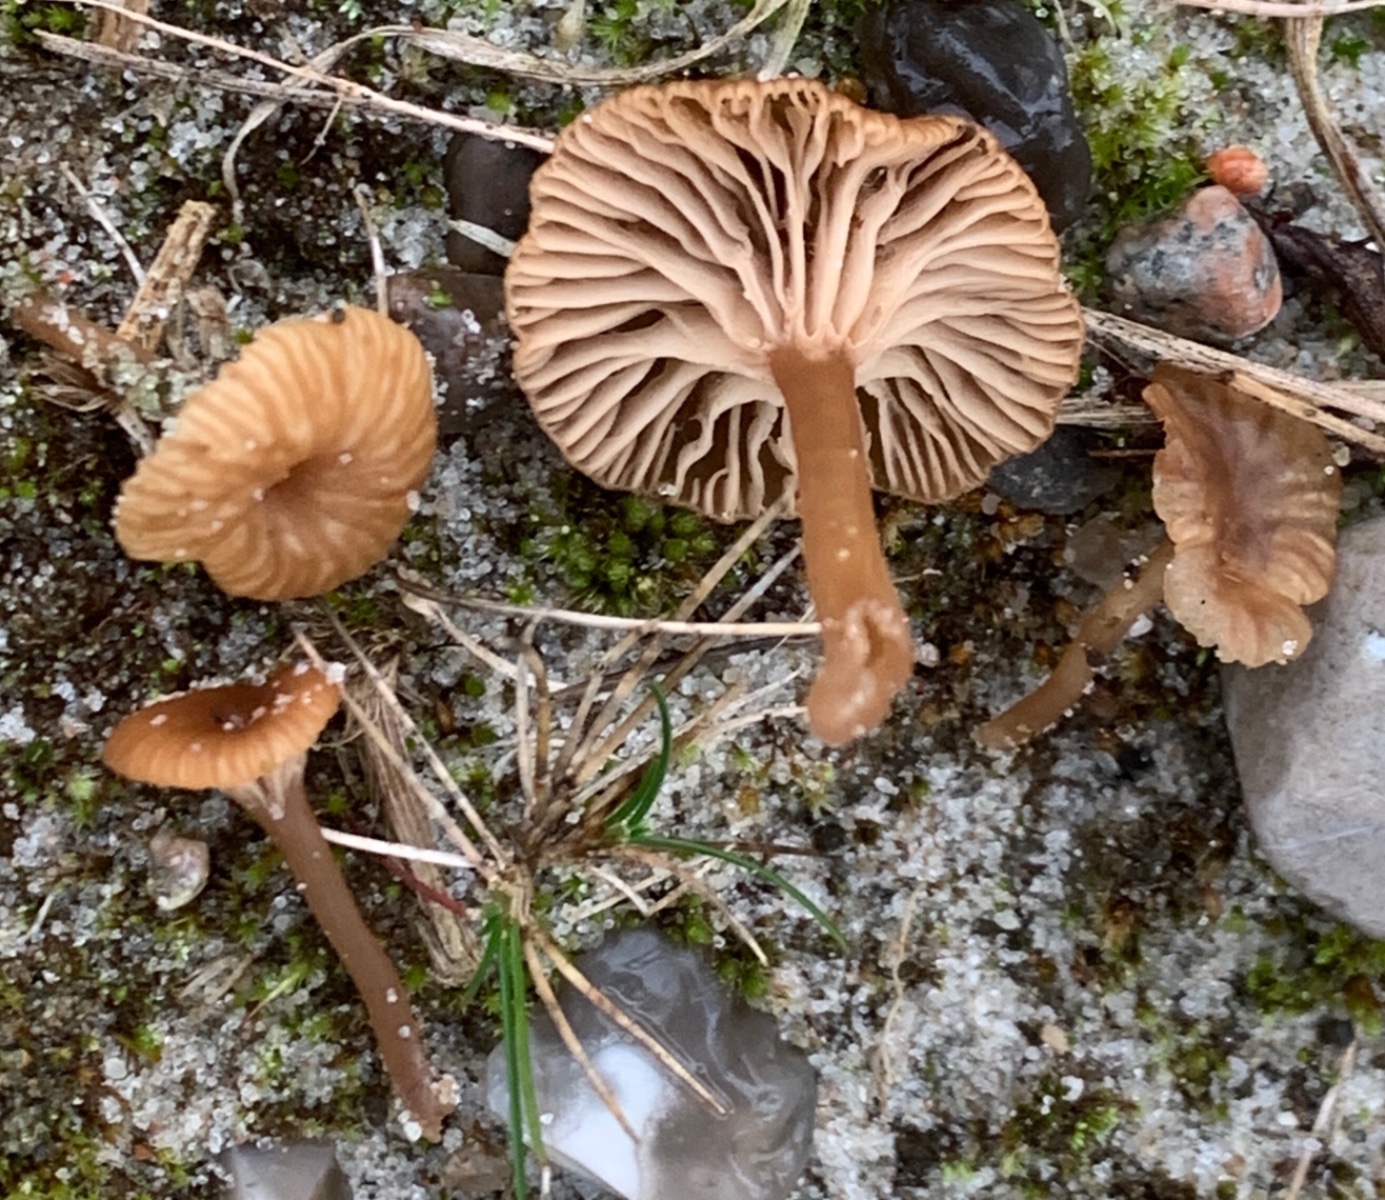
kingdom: Fungi
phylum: Basidiomycota
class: Agaricomycetes
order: Agaricales
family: Tricholomataceae
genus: Omphalina
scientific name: Omphalina pyxidata
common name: rødbrun navlehat
